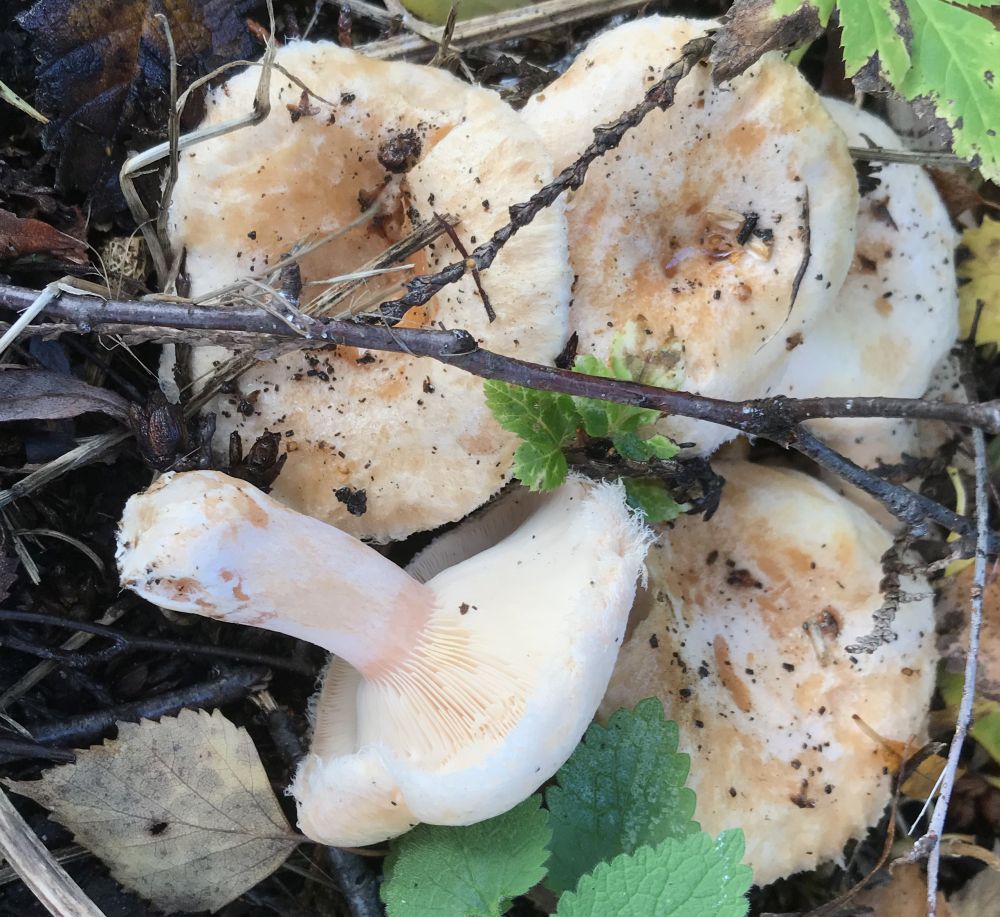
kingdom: Fungi
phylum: Basidiomycota
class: Agaricomycetes
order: Russulales
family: Russulaceae
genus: Lactarius
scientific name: Lactarius pubescens
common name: dunet mælkehat
